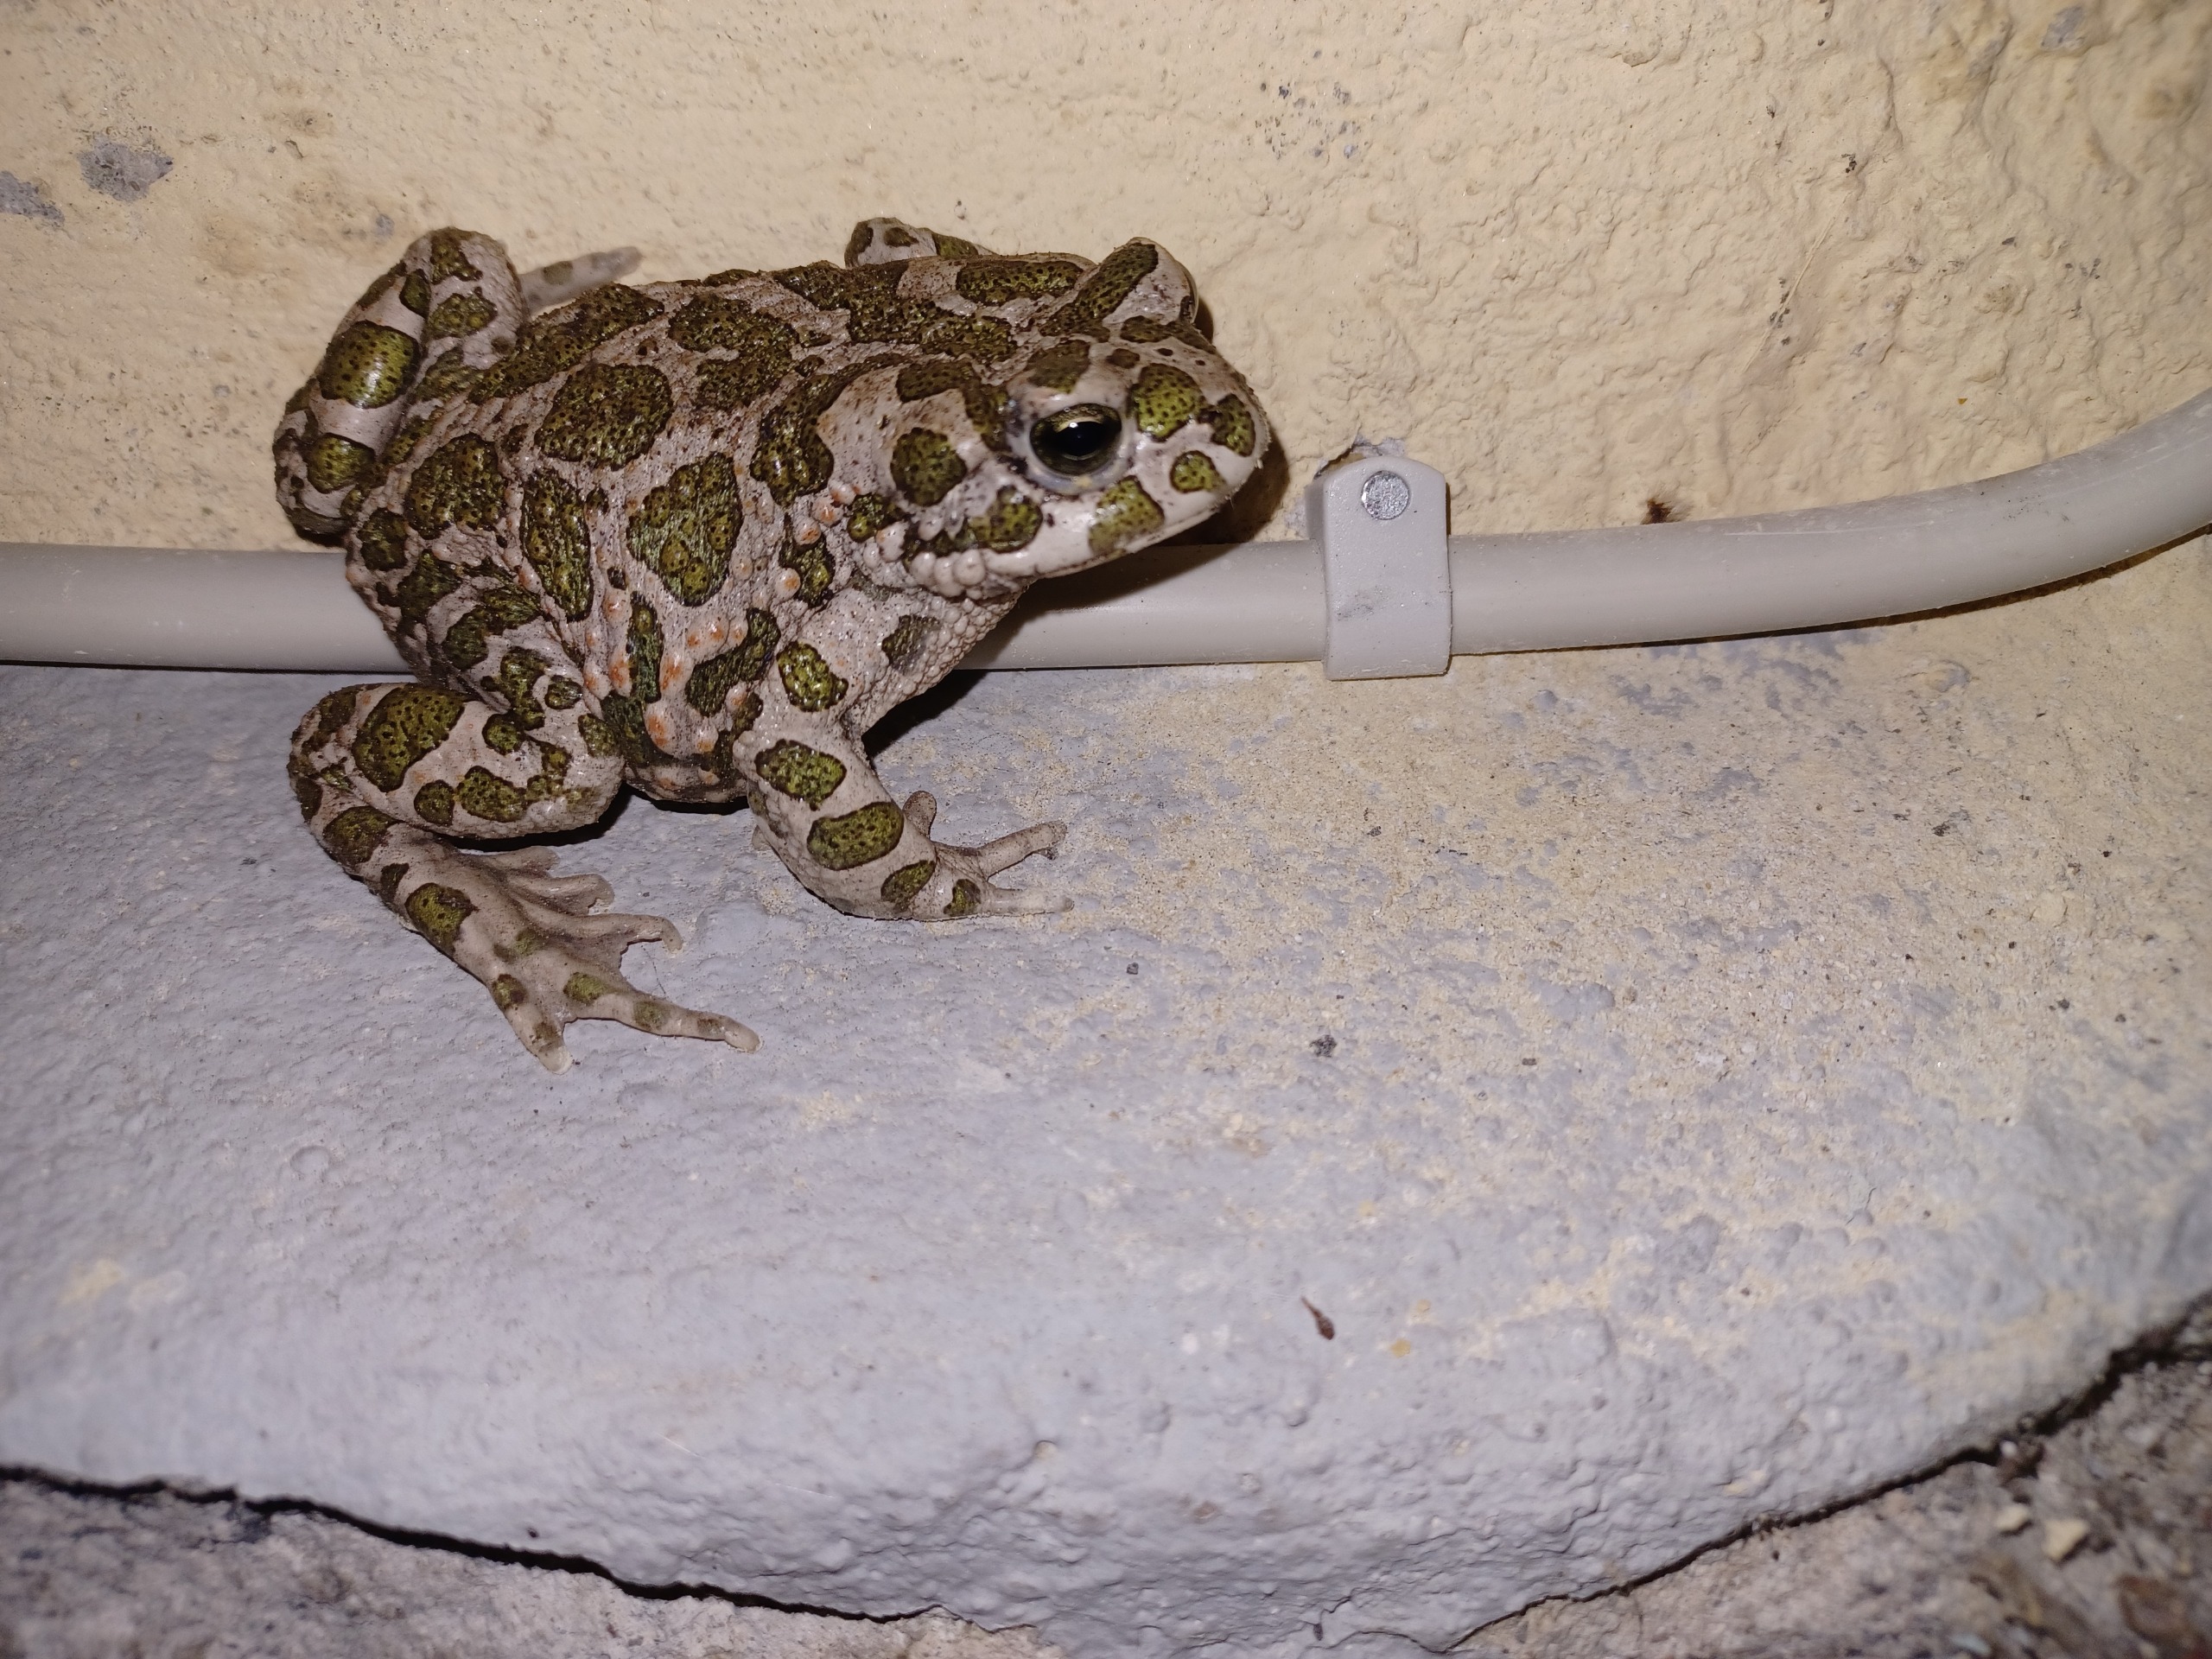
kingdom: Animalia
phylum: Chordata
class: Amphibia
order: Anura
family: Bufonidae
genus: Bufotes
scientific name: Bufotes viridis
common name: Grønbroget tudse
